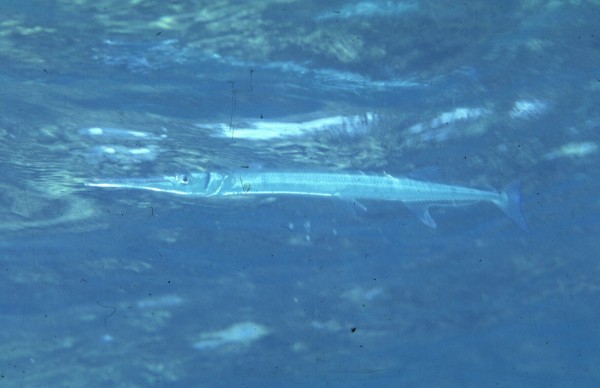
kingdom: Animalia
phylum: Chordata
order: Beloniformes
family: Belonidae
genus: Tylosurus
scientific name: Tylosurus crocodilus
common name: Houndfish
